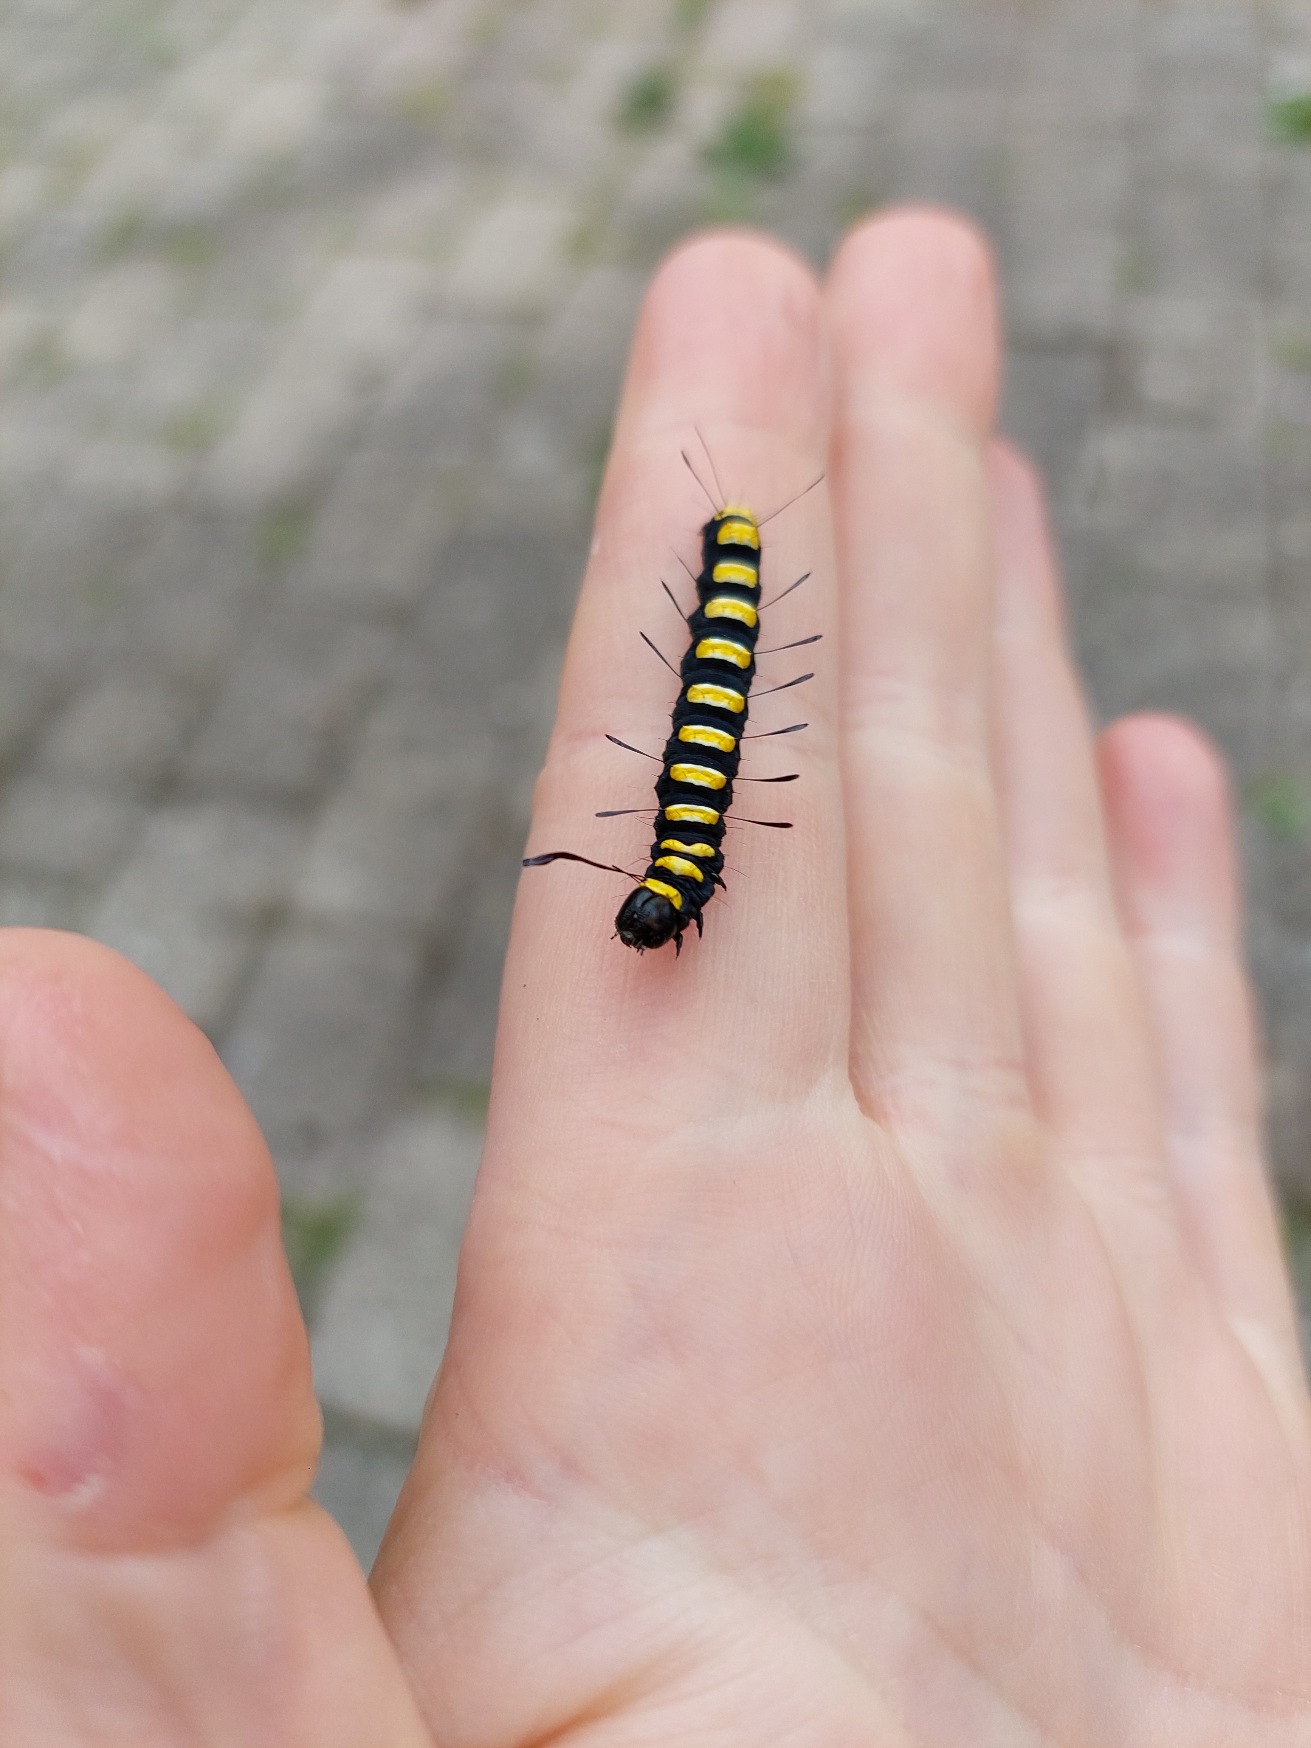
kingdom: Animalia
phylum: Arthropoda
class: Insecta
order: Lepidoptera
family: Noctuidae
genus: Acronicta
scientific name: Acronicta alni
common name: Kølleugle
